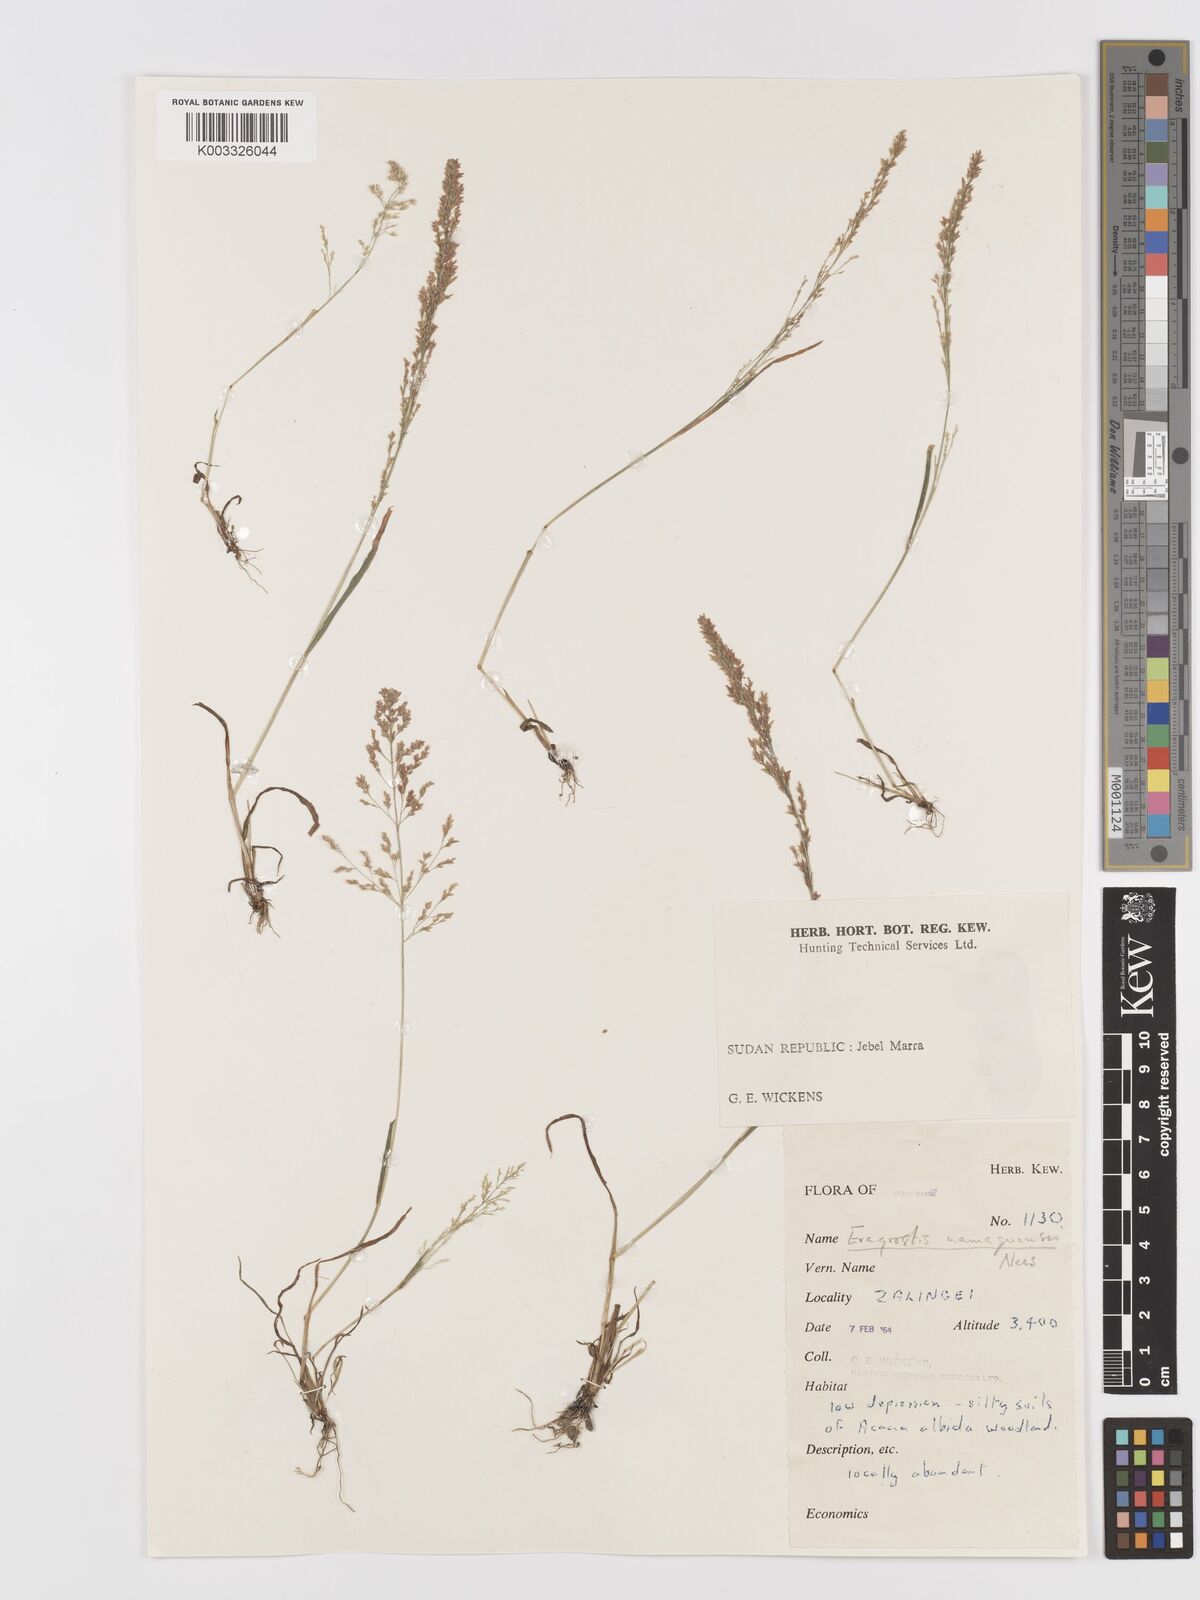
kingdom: Plantae
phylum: Tracheophyta
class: Liliopsida
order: Poales
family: Poaceae
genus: Eragrostis
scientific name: Eragrostis japonica
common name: Pond lovegrass
